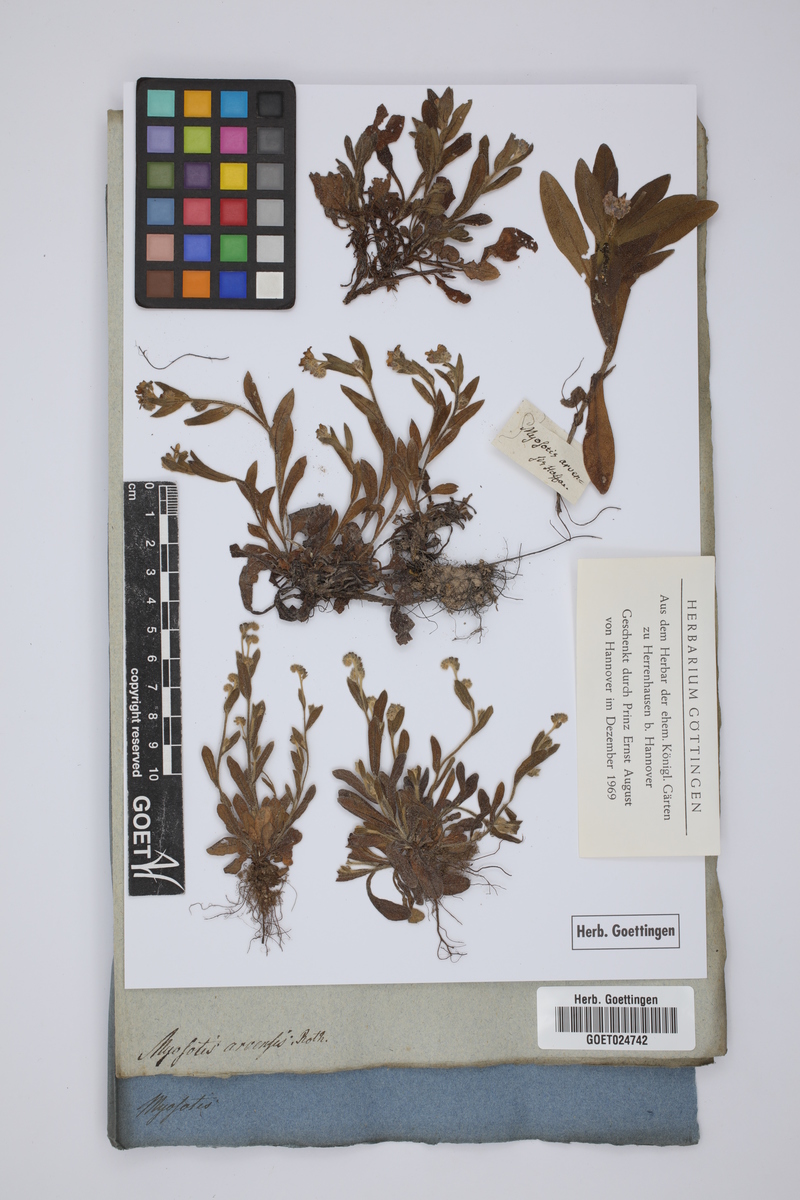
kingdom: Plantae
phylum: Tracheophyta
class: Magnoliopsida
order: Boraginales
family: Boraginaceae
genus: Myosotis
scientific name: Myosotis arvensis
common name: Field forget-me-not
